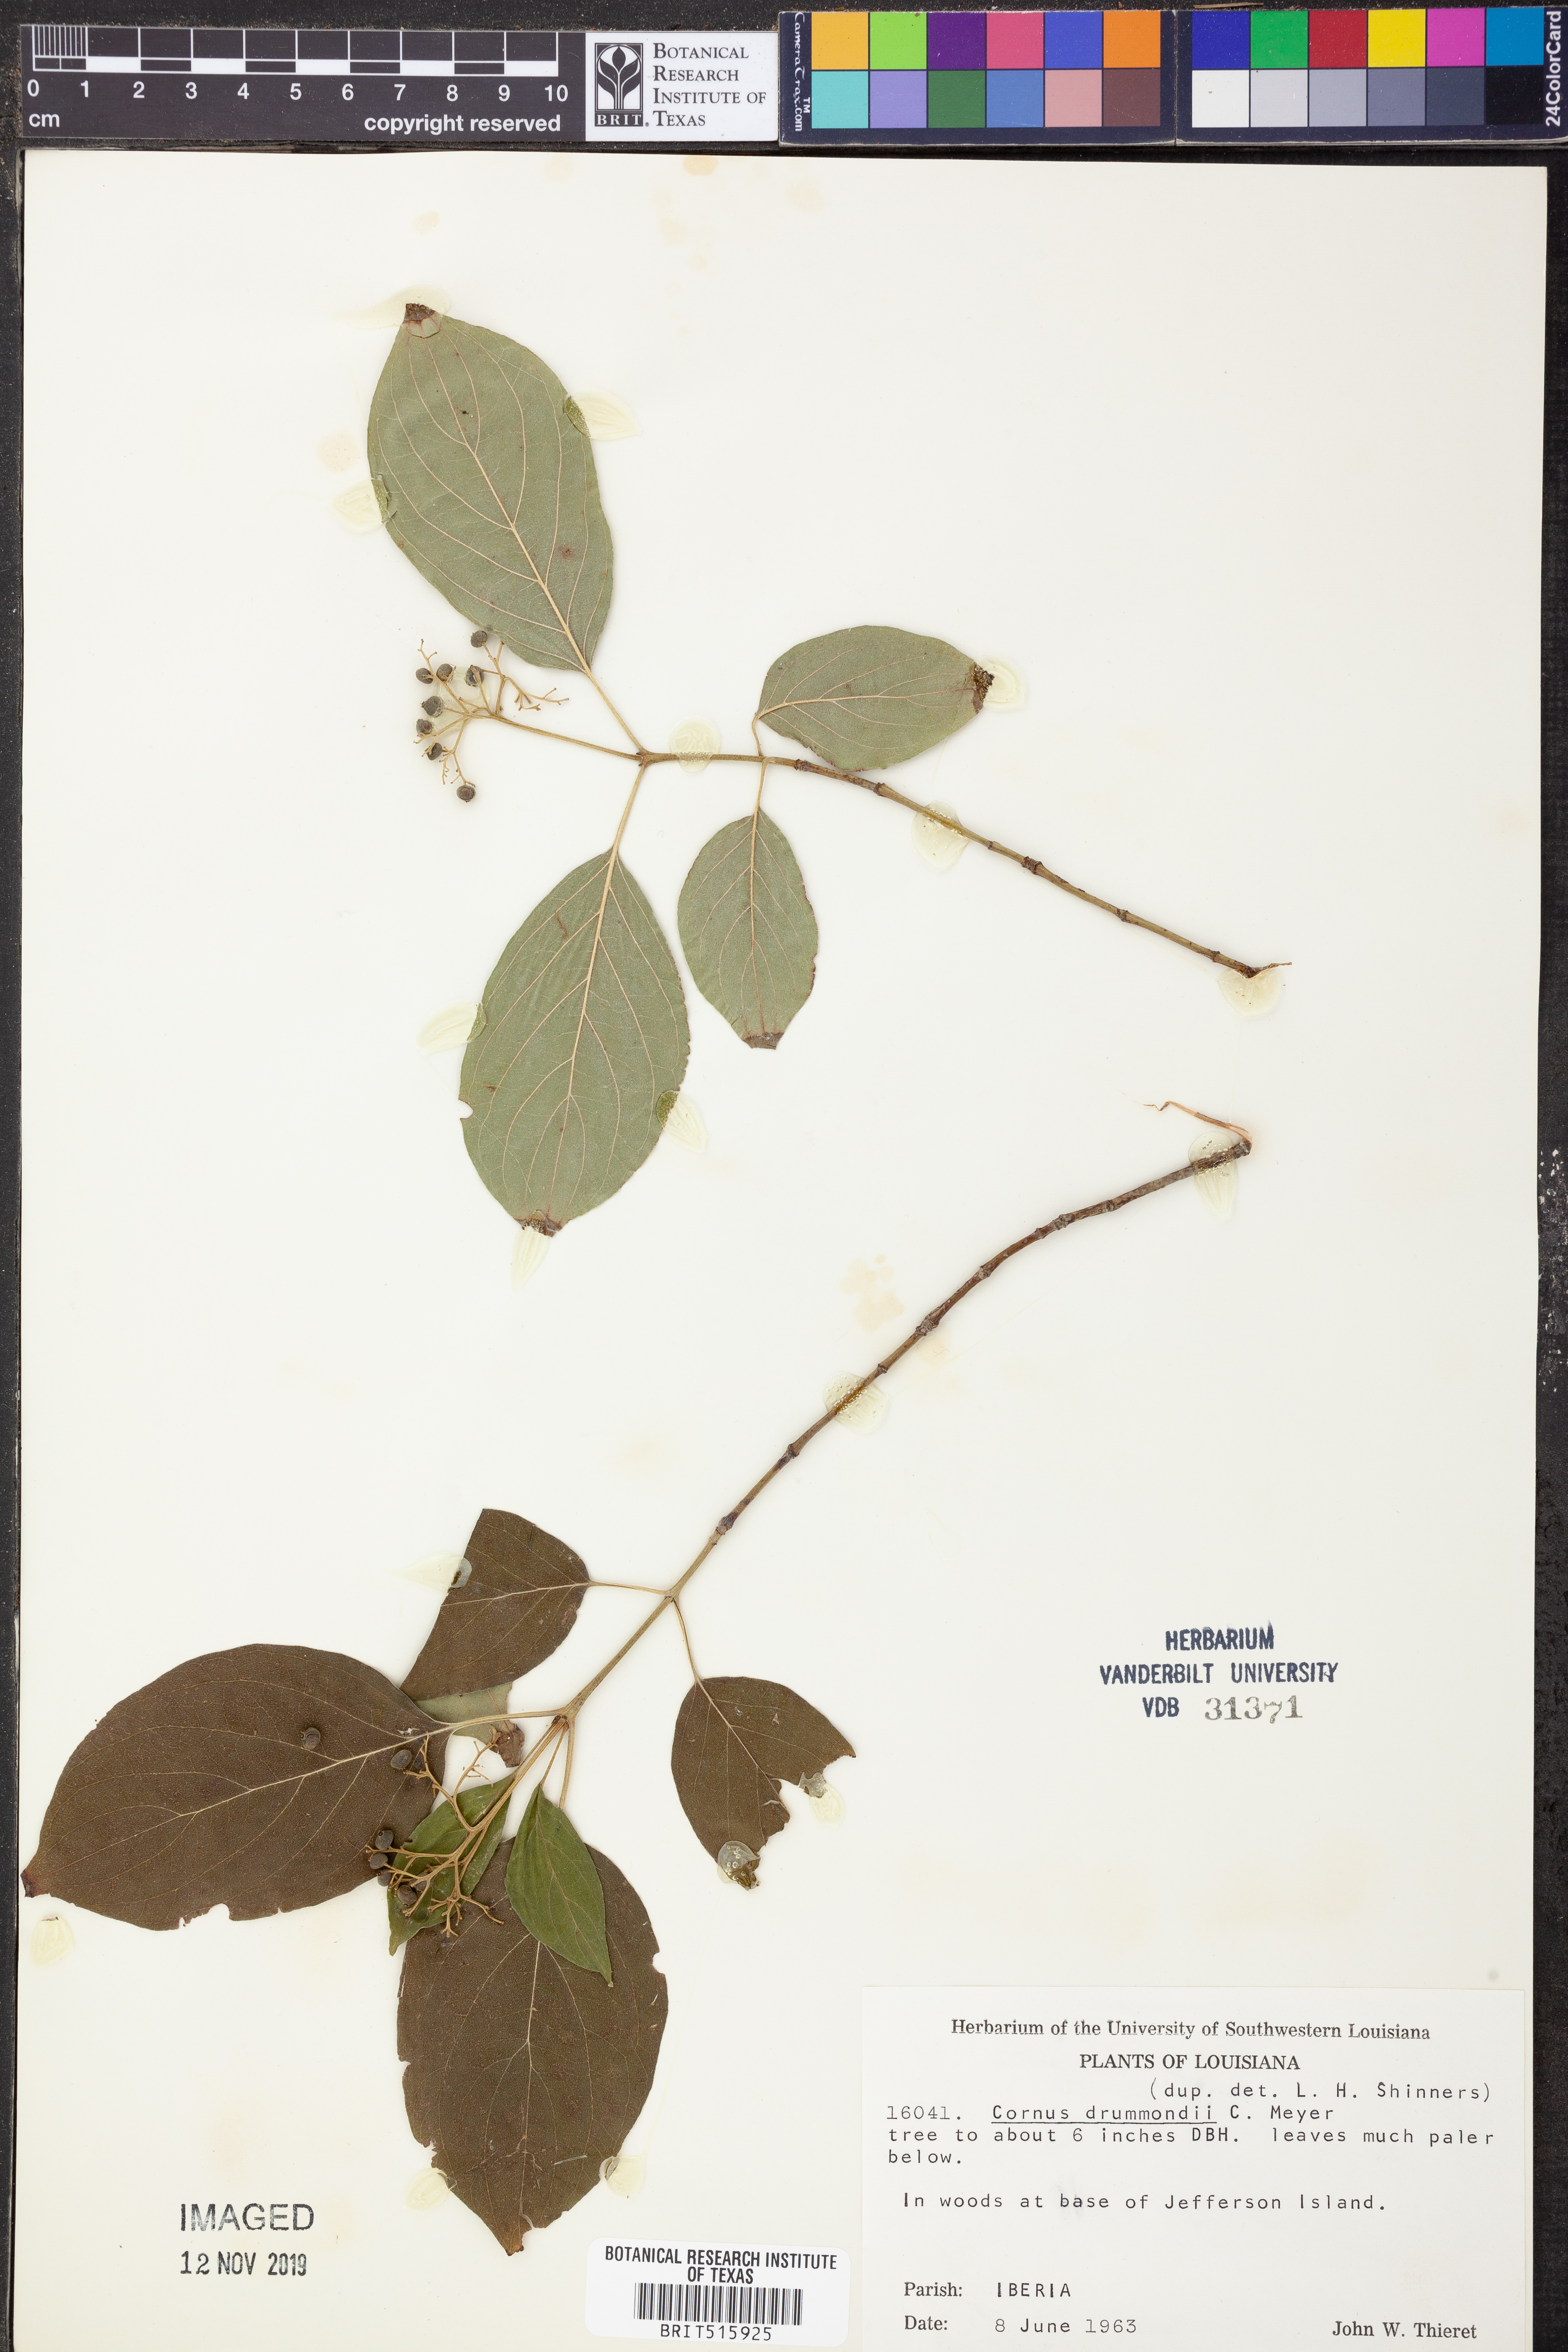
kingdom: Plantae
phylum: Tracheophyta
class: Magnoliopsida
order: Cornales
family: Cornaceae
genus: Cornus
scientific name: Cornus drummondii
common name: Rough-leaf dogwood
